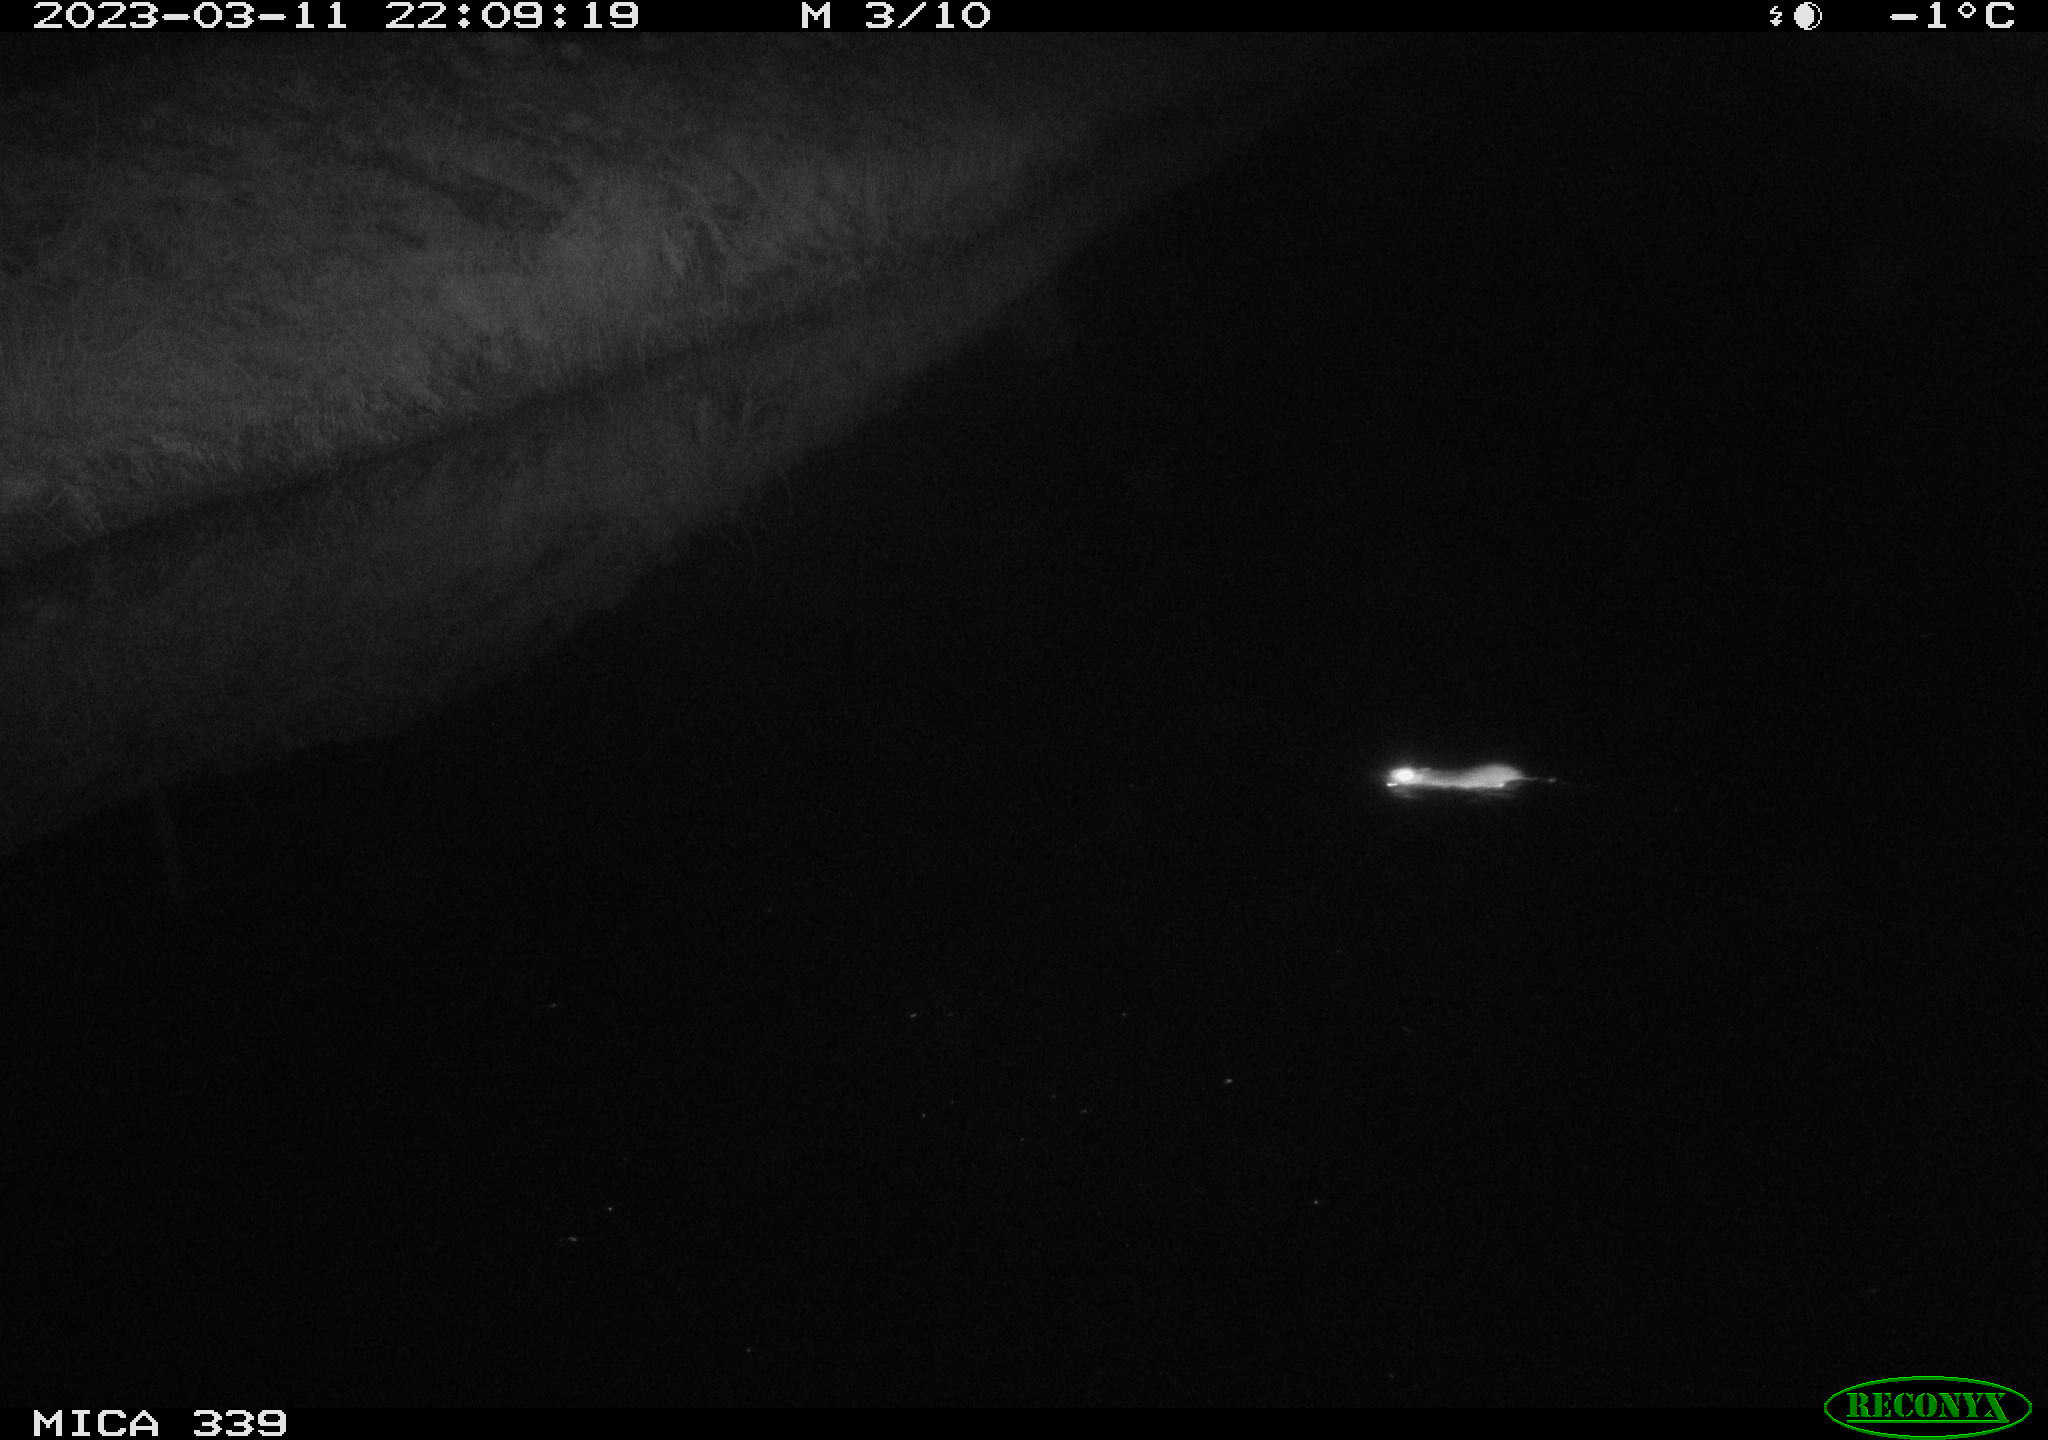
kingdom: Animalia
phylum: Chordata
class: Mammalia
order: Rodentia
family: Muridae
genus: Rattus
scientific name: Rattus norvegicus
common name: Brown rat
